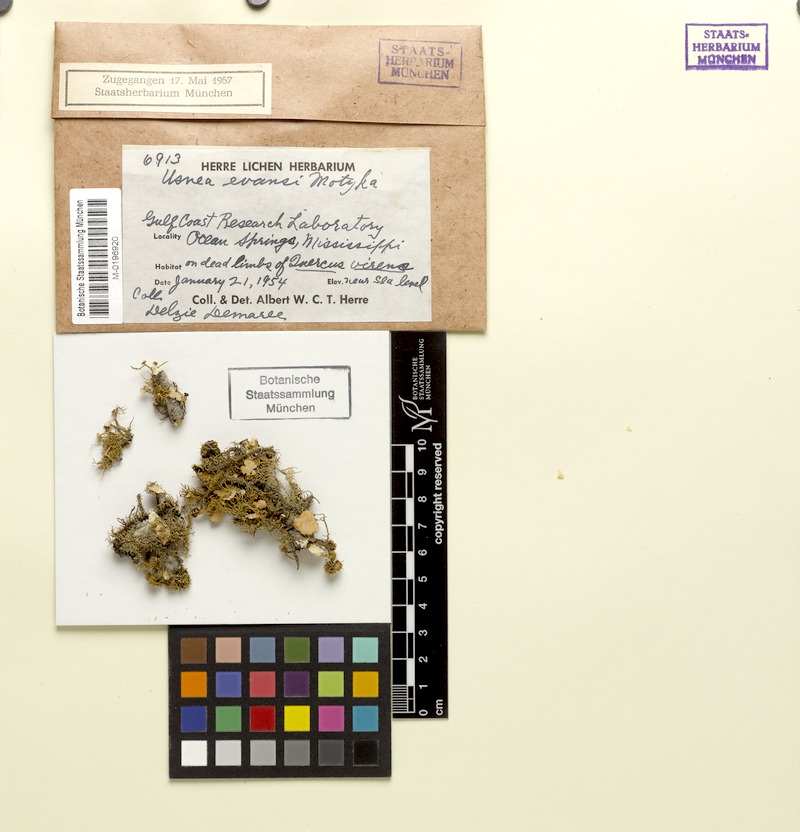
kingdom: Fungi
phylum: Ascomycota
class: Lecanoromycetes
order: Lecanorales
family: Parmeliaceae
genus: Usnea
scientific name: Usnea evansii
